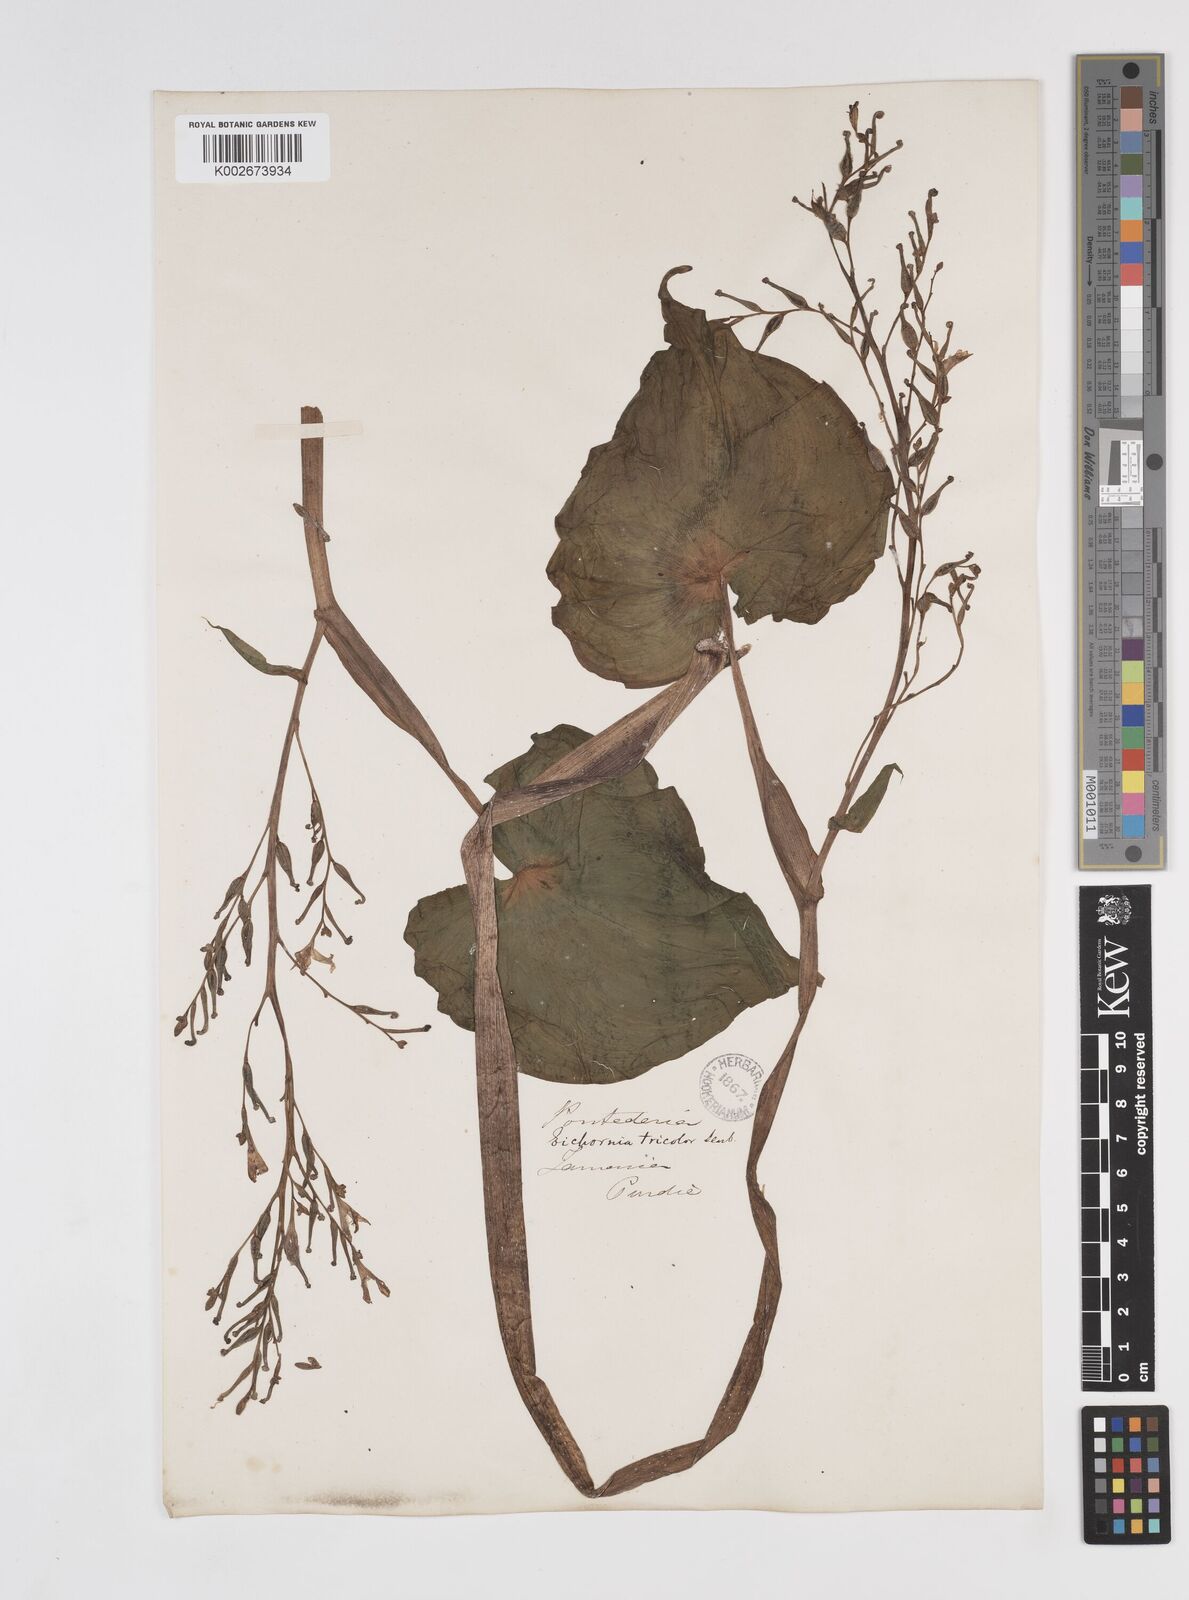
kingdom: Plantae
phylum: Tracheophyta
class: Liliopsida
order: Commelinales
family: Pontederiaceae
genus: Pontederia
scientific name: Pontederia paniculata
